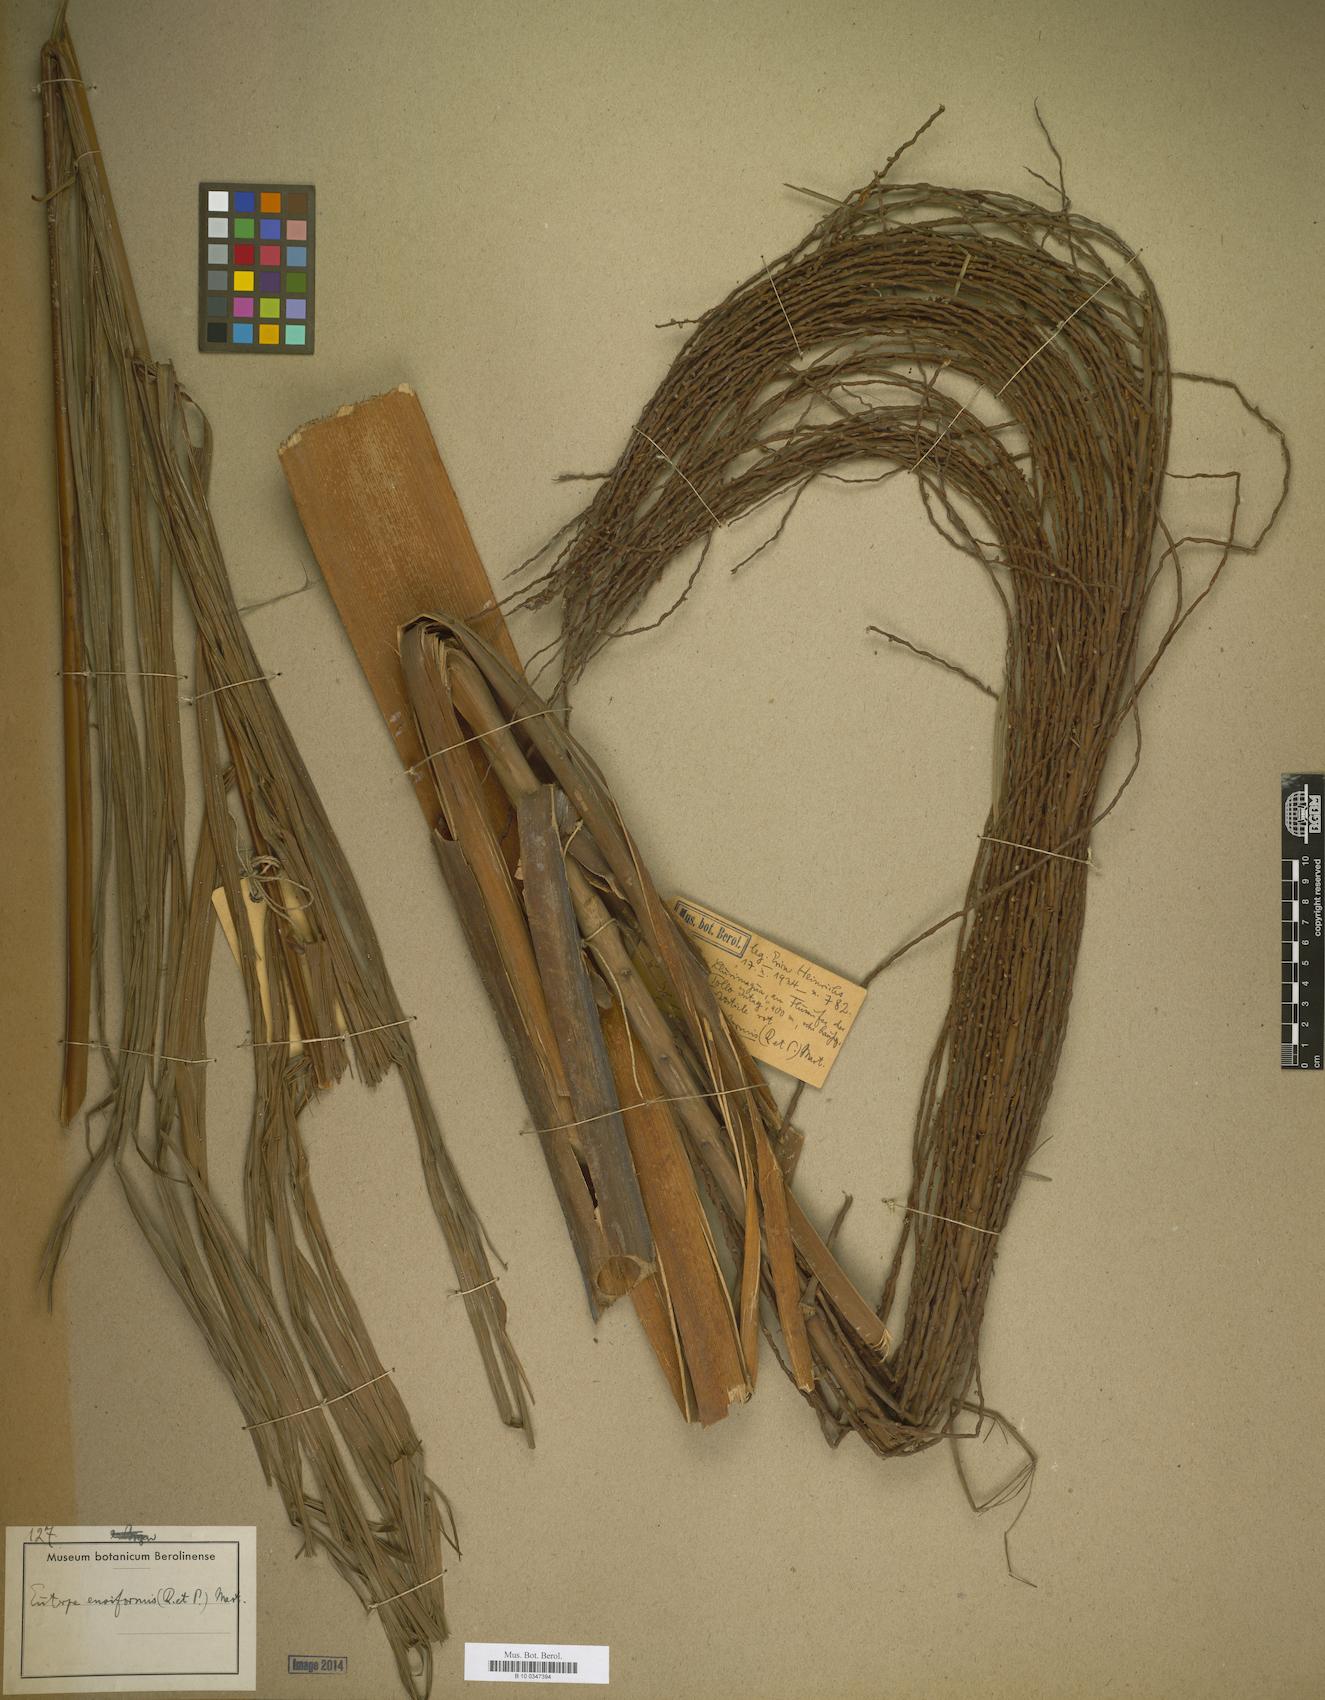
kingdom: Plantae
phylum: Tracheophyta
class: Liliopsida
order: Arecales
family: Arecaceae
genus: Prestoea
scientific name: Prestoea ensiformis
